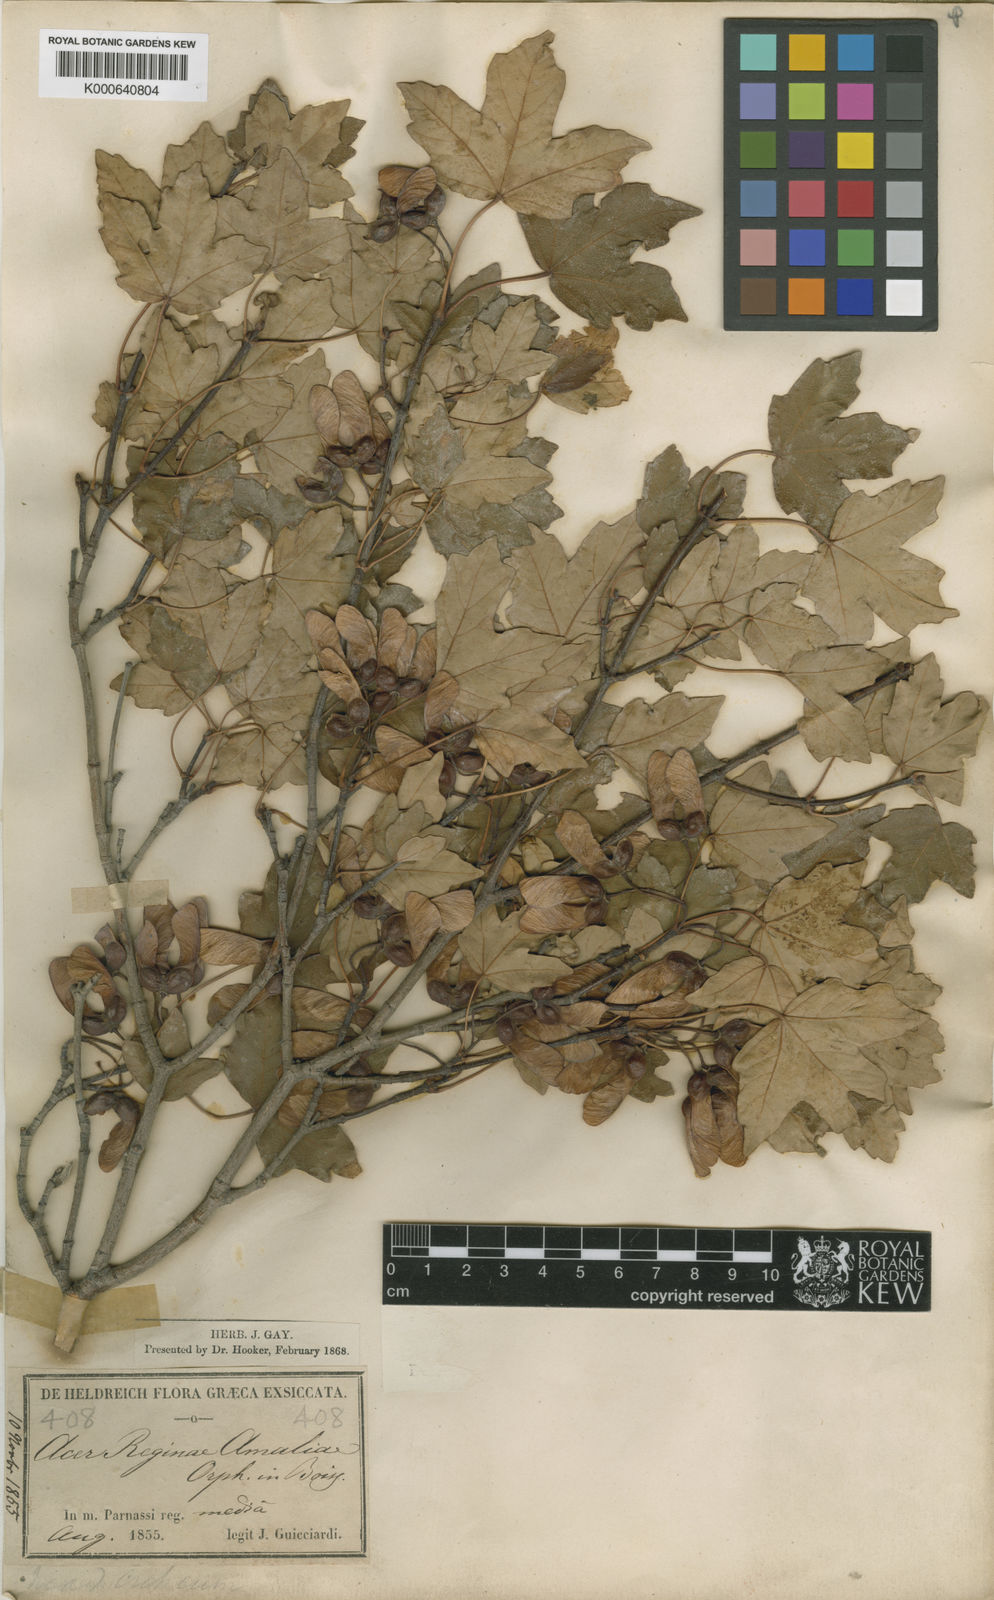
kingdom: Plantae
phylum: Tracheophyta
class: Magnoliopsida
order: Sapindales
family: Sapindaceae
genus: Acer
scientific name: Acer monspessulanum
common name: Montpellier maple
